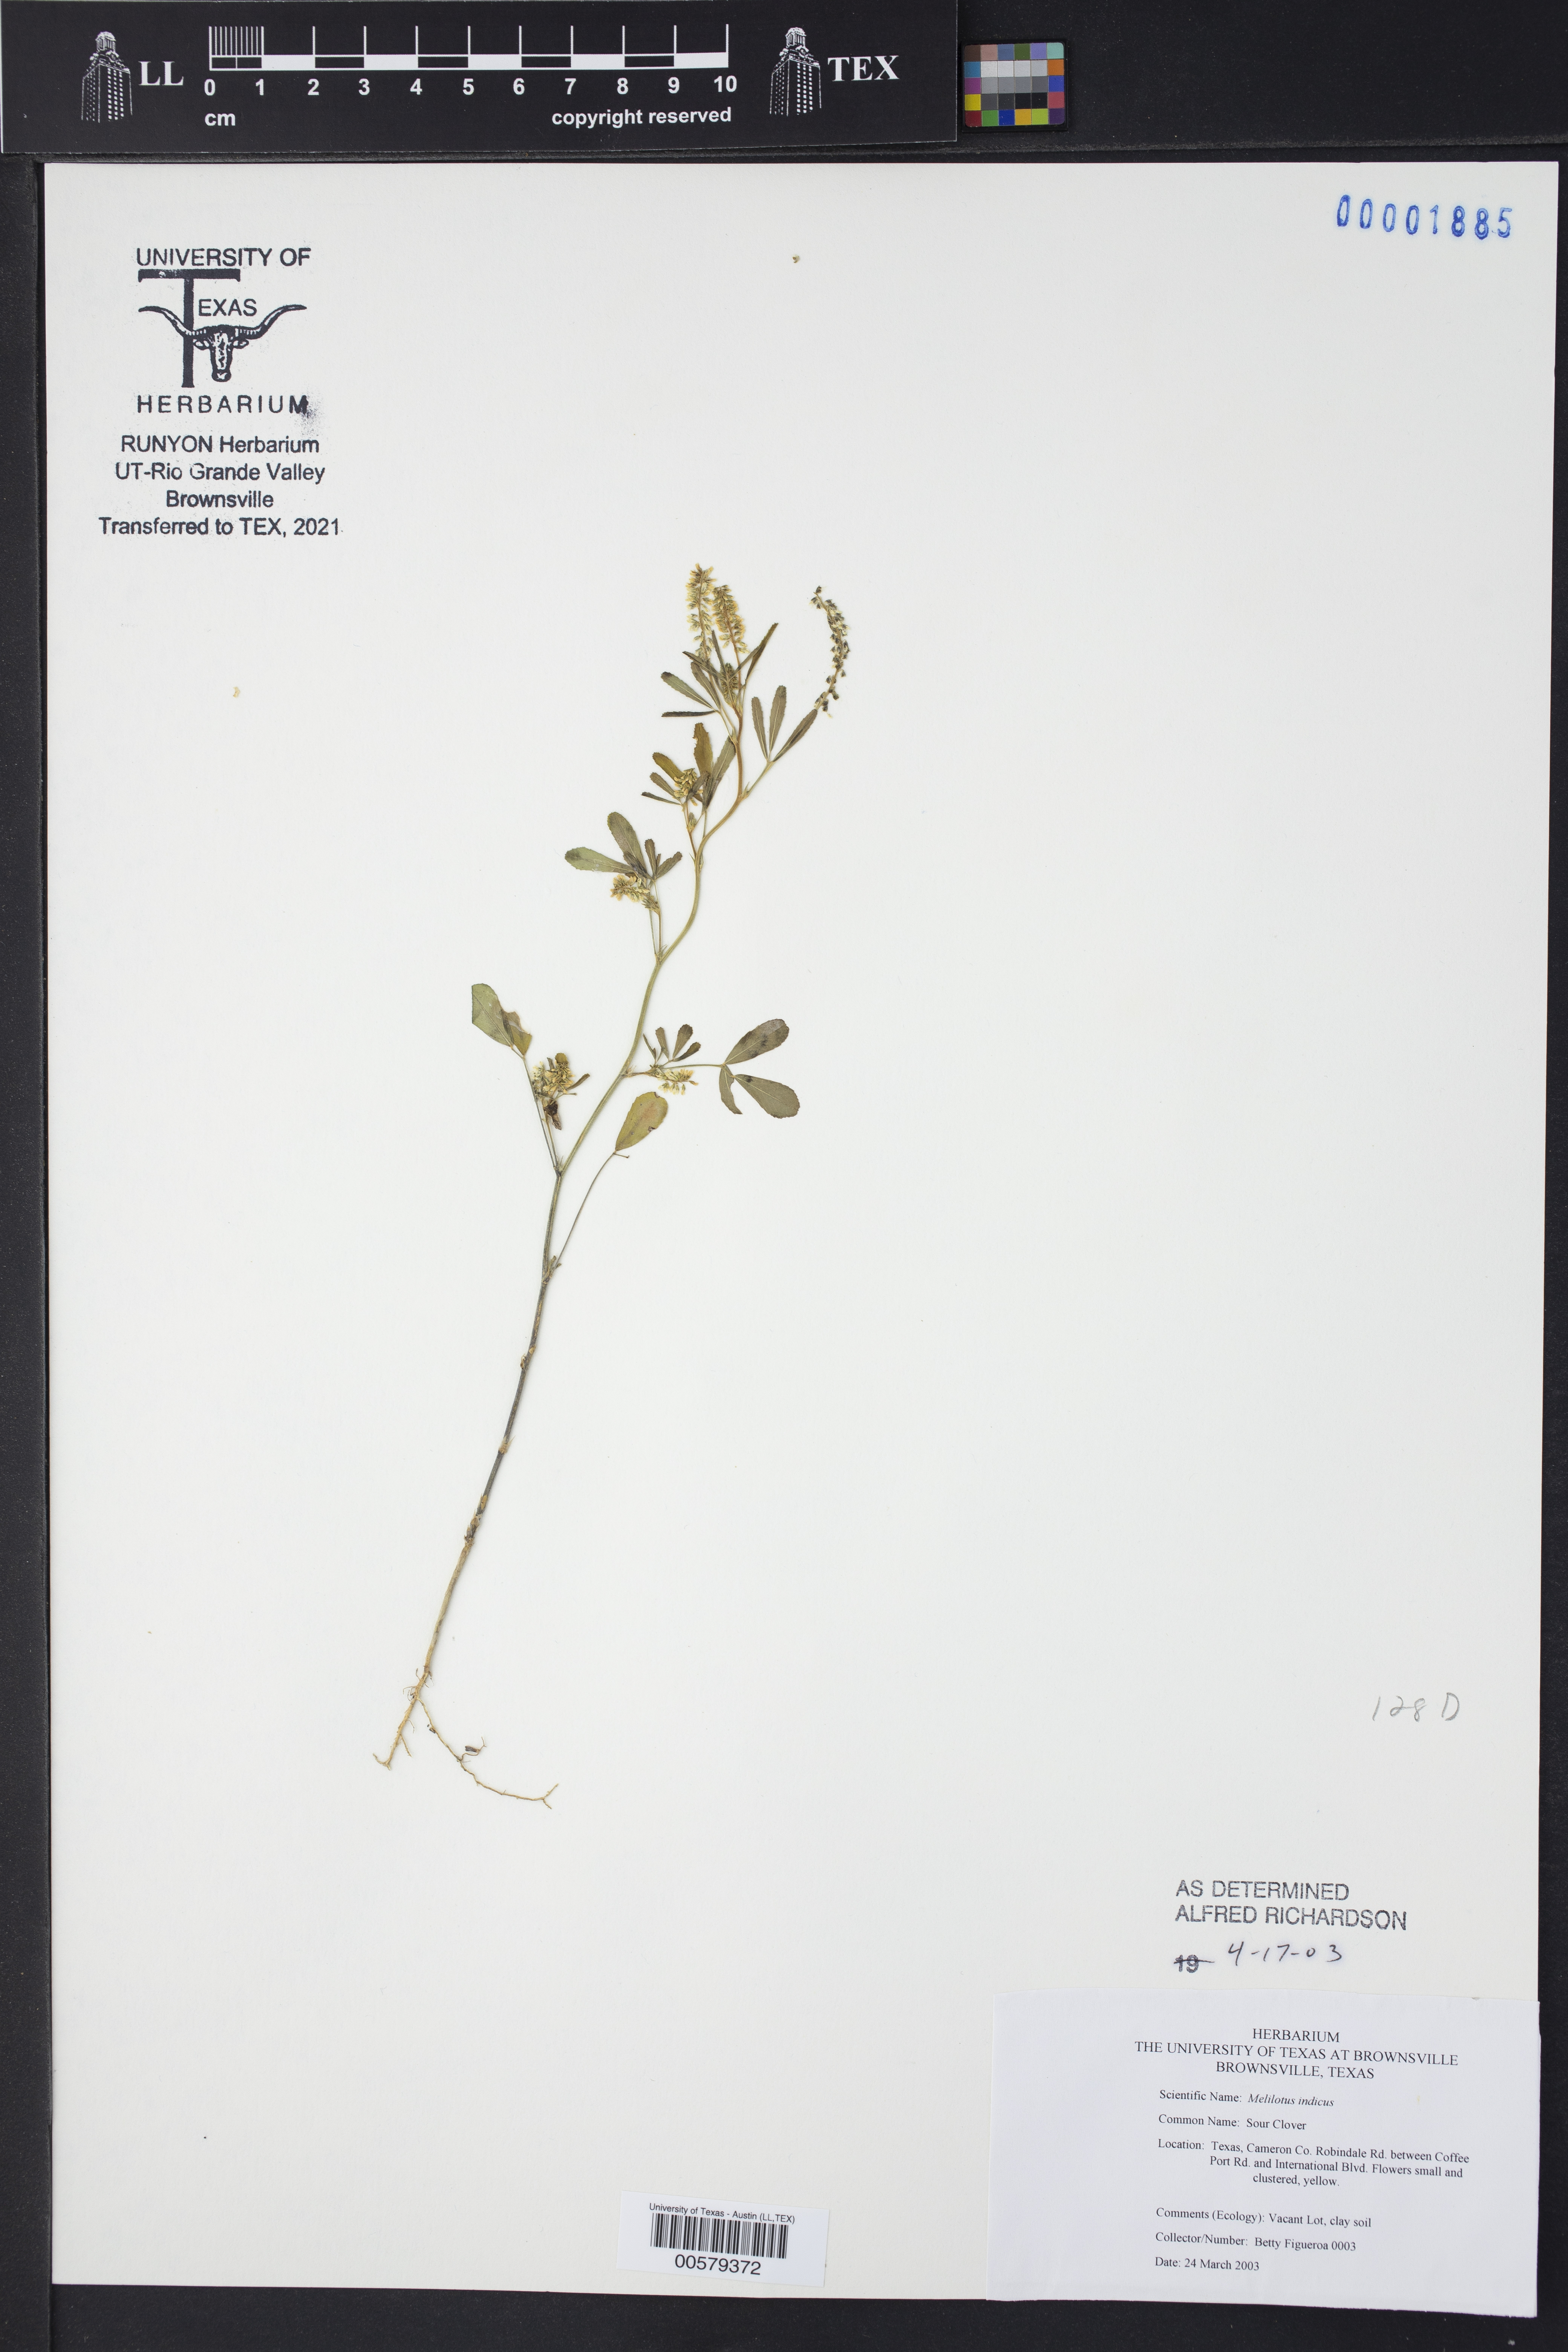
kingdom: Plantae
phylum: Tracheophyta
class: Magnoliopsida
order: Fabales
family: Fabaceae
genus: Melilotus
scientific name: Melilotus indicus
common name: Small melilot
